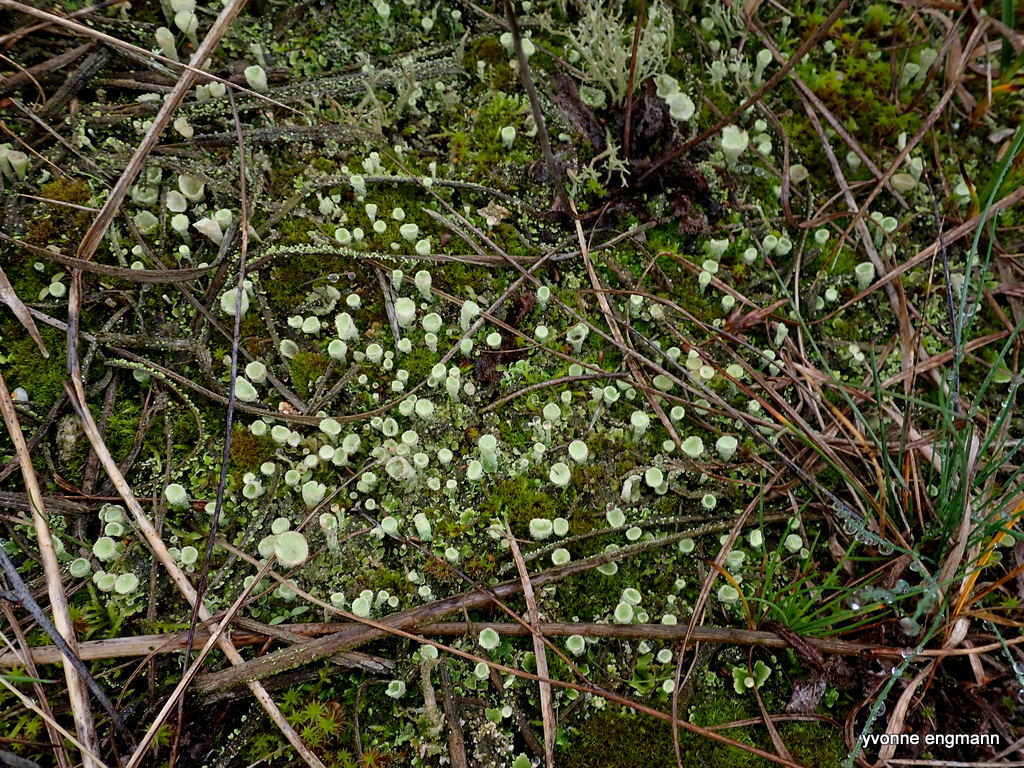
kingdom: Fungi
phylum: Ascomycota
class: Lecanoromycetes
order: Lecanorales
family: Cladoniaceae
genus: Cladonia
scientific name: Cladonia humilis
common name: lav bægerlav
